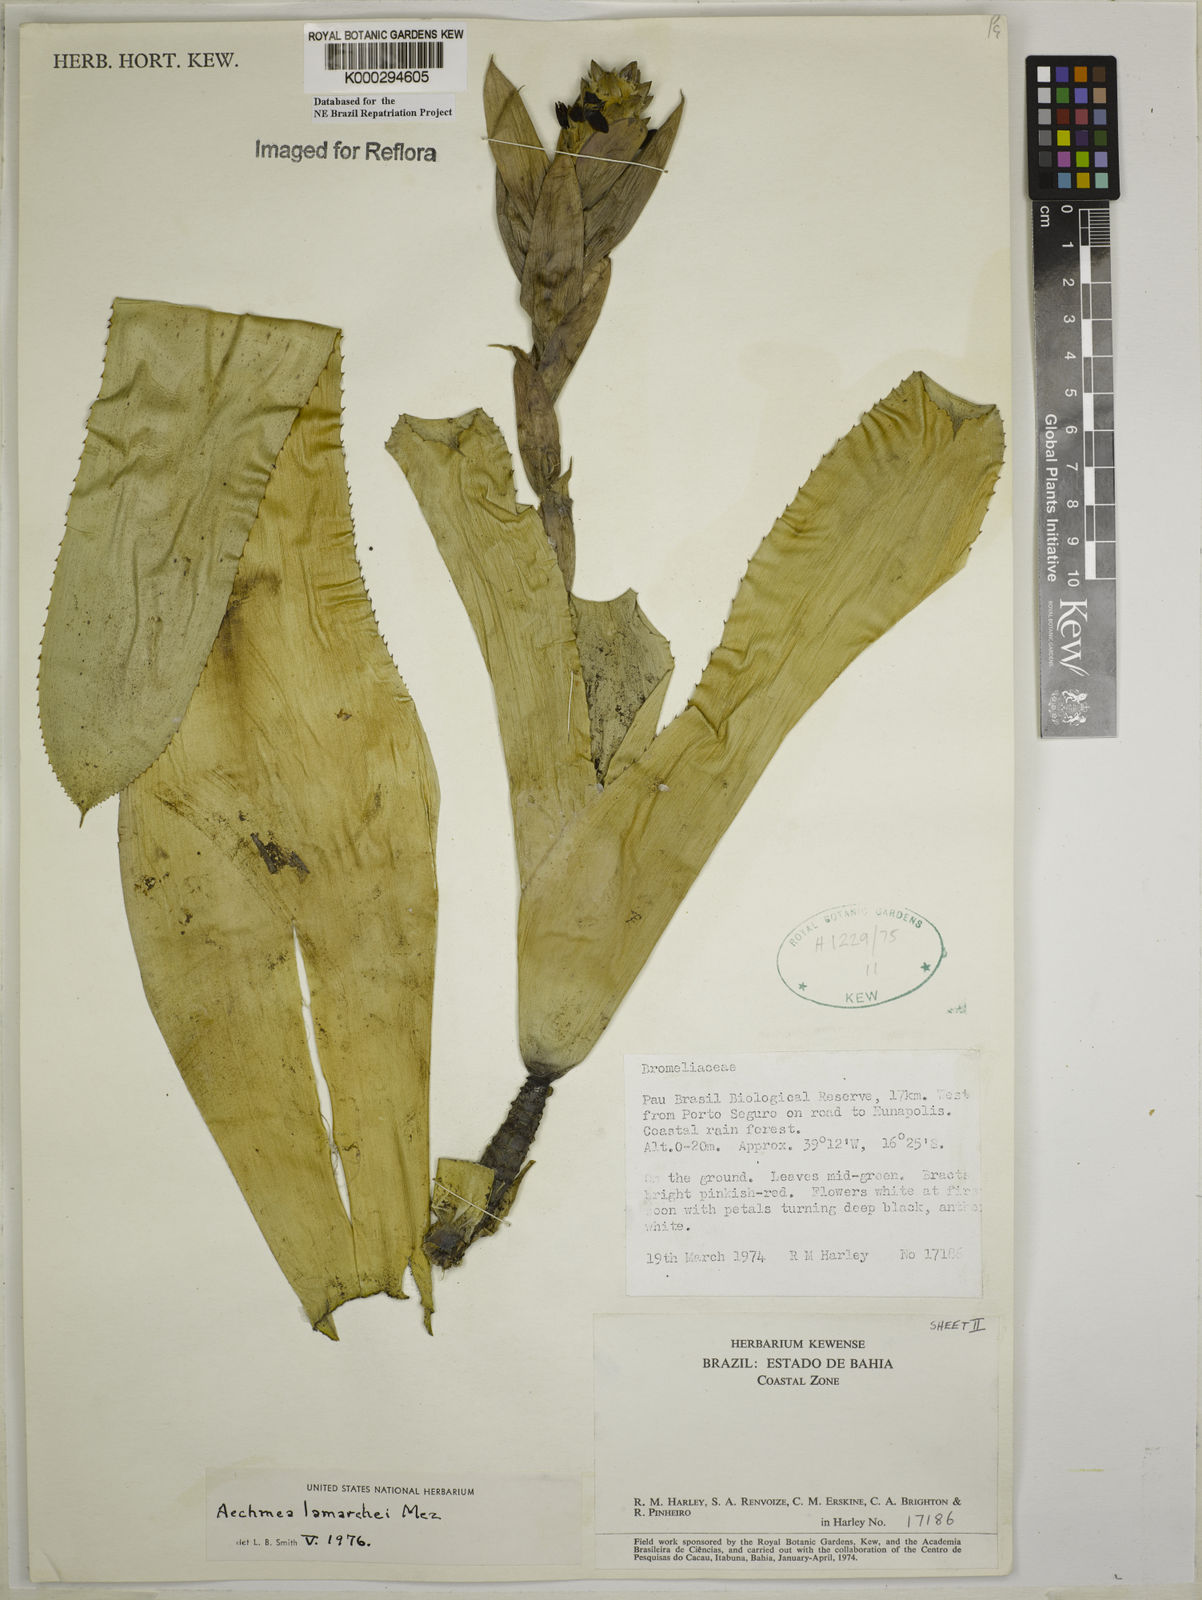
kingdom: Plantae
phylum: Tracheophyta
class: Liliopsida
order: Poales
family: Bromeliaceae
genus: Aechmea
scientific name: Aechmea lamarchei
